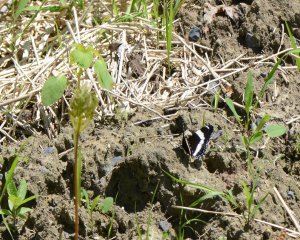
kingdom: Animalia
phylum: Arthropoda
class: Insecta
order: Lepidoptera
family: Nymphalidae
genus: Limenitis
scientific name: Limenitis arthemis
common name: Red-spotted Admiral
